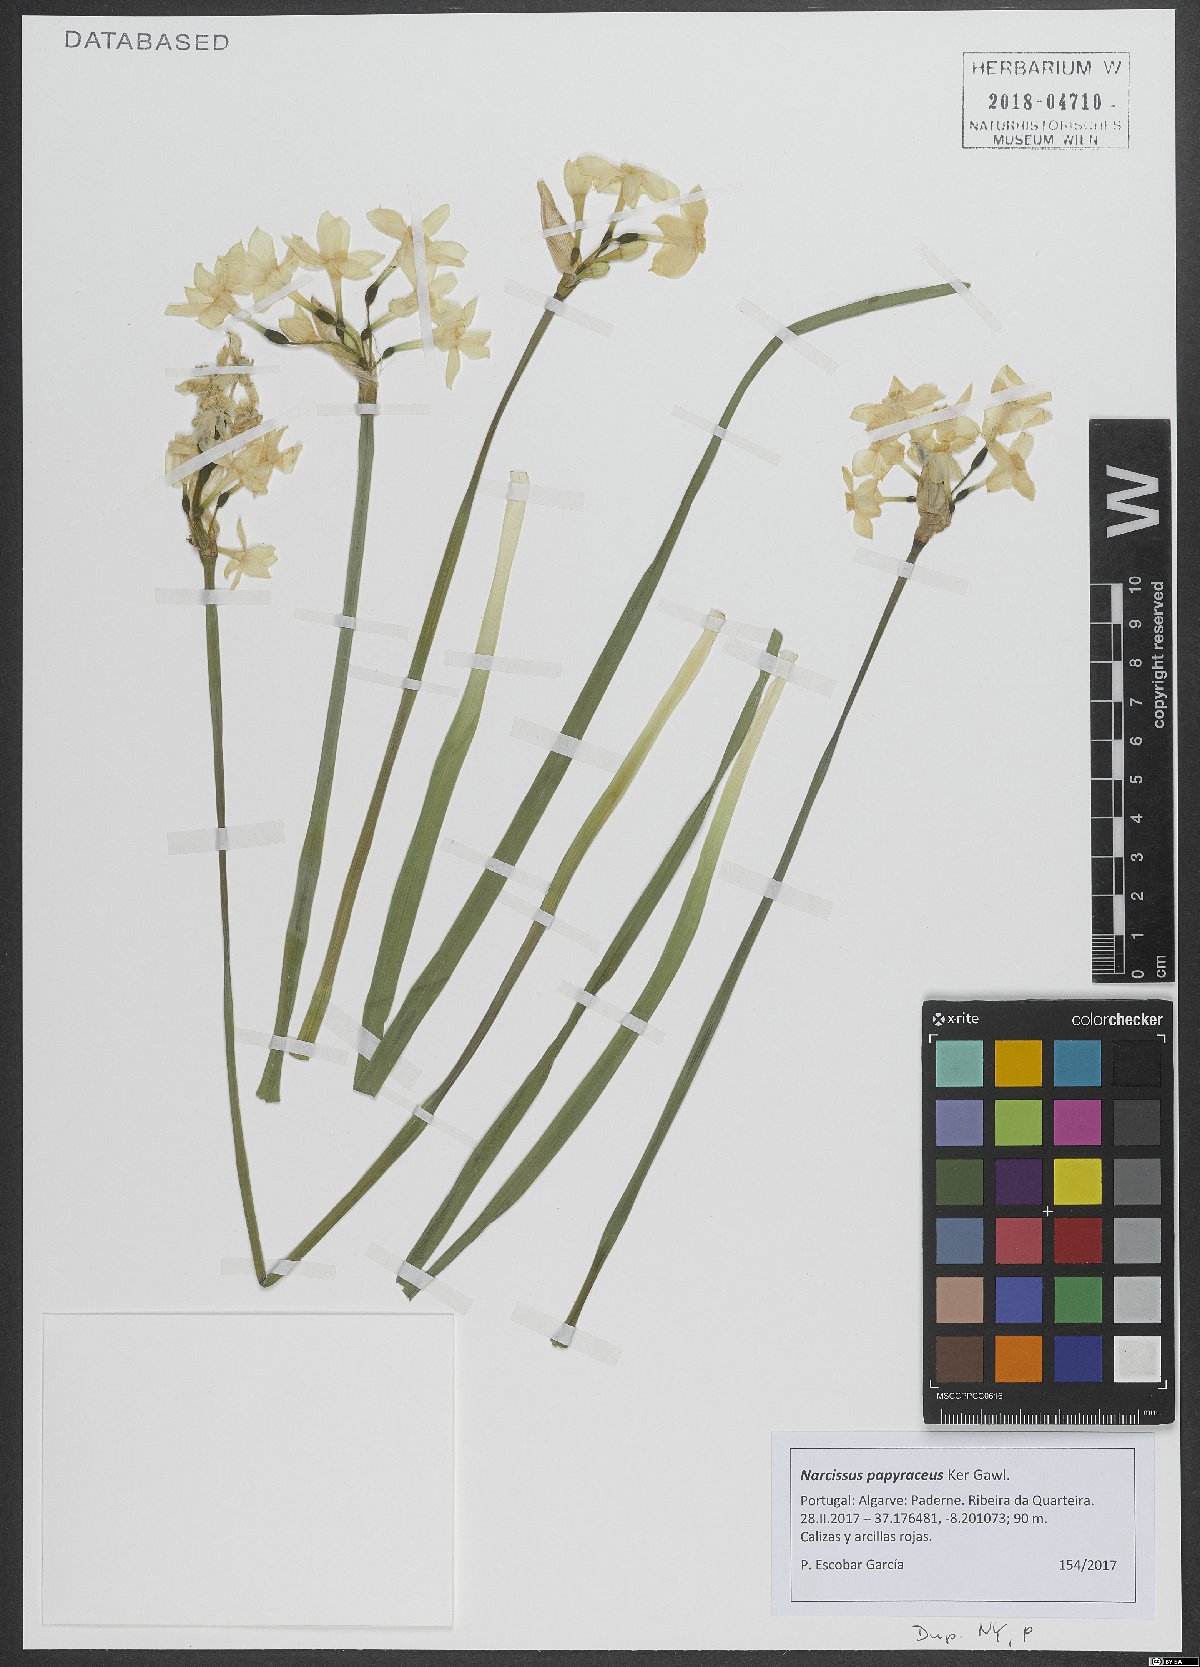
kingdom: Plantae
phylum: Tracheophyta
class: Liliopsida
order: Asparagales
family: Amaryllidaceae
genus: Narcissus
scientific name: Narcissus papyraceus
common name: Paper-white daffodil
